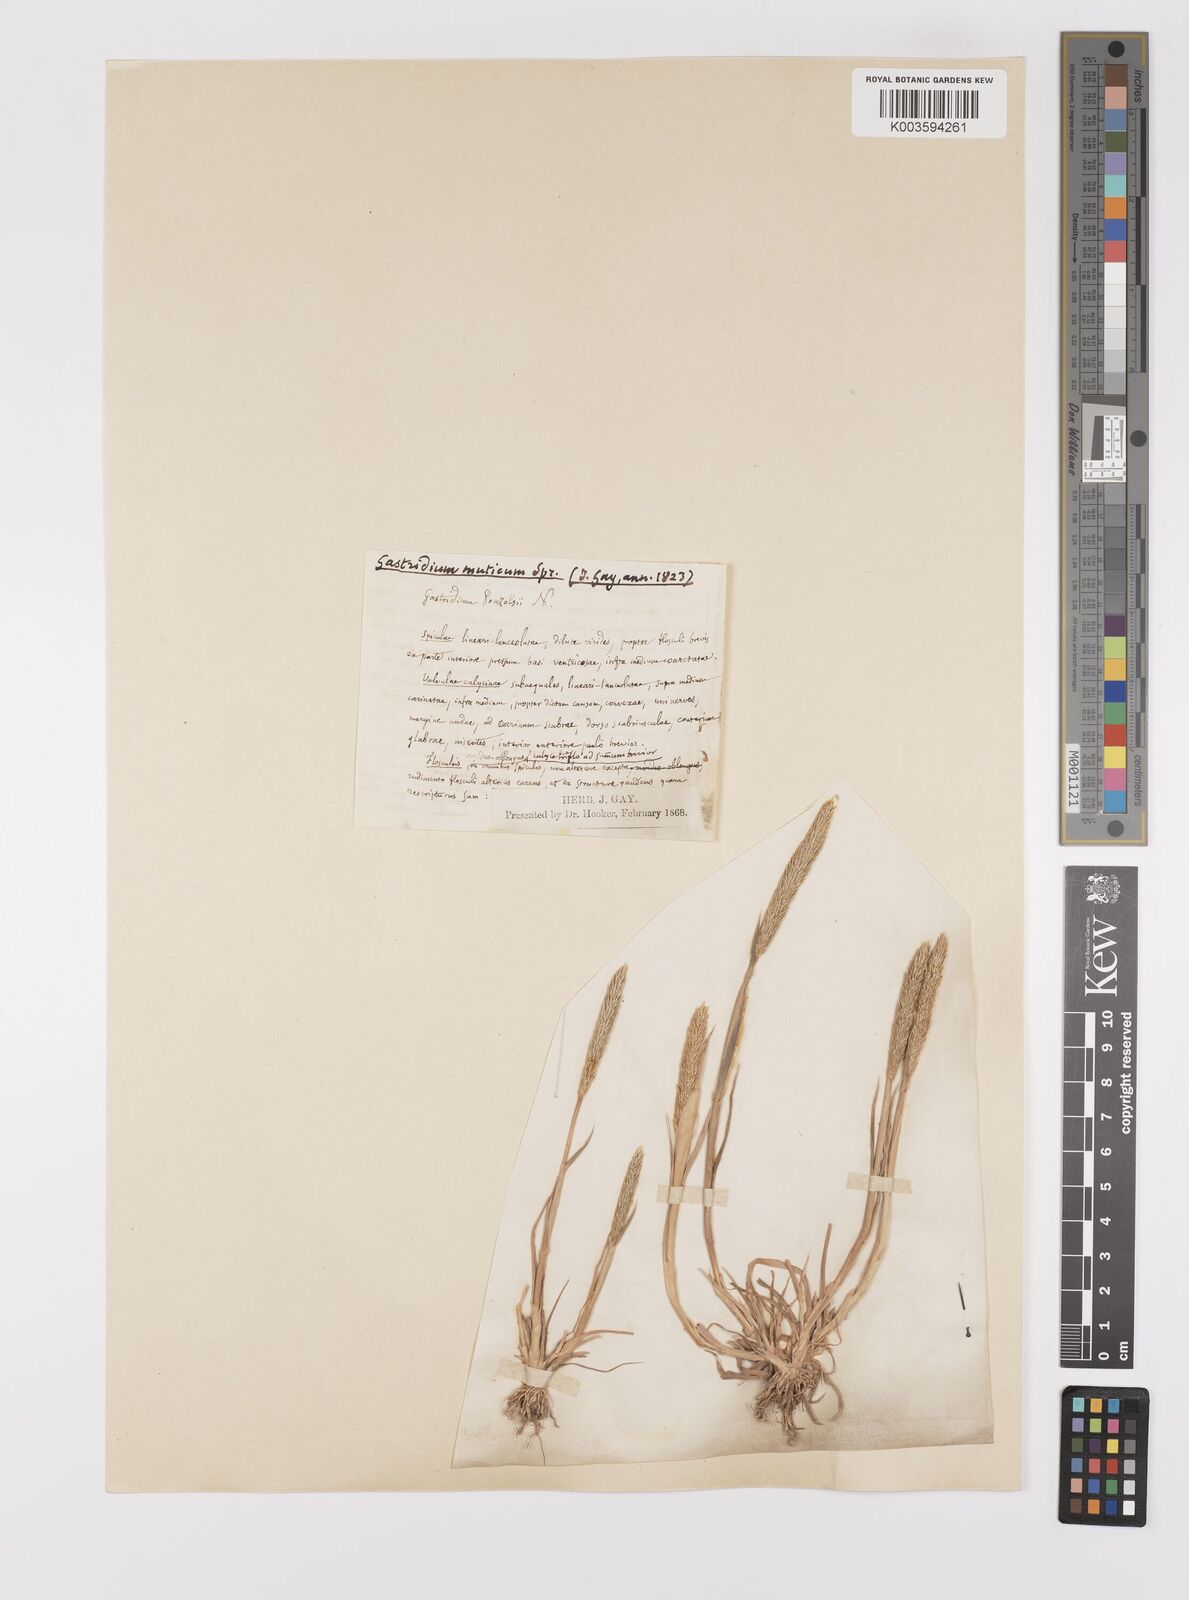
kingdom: Plantae
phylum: Tracheophyta
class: Liliopsida
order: Poales
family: Poaceae
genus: Gastridium
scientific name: Gastridium ventricosum
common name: Nit-grass
